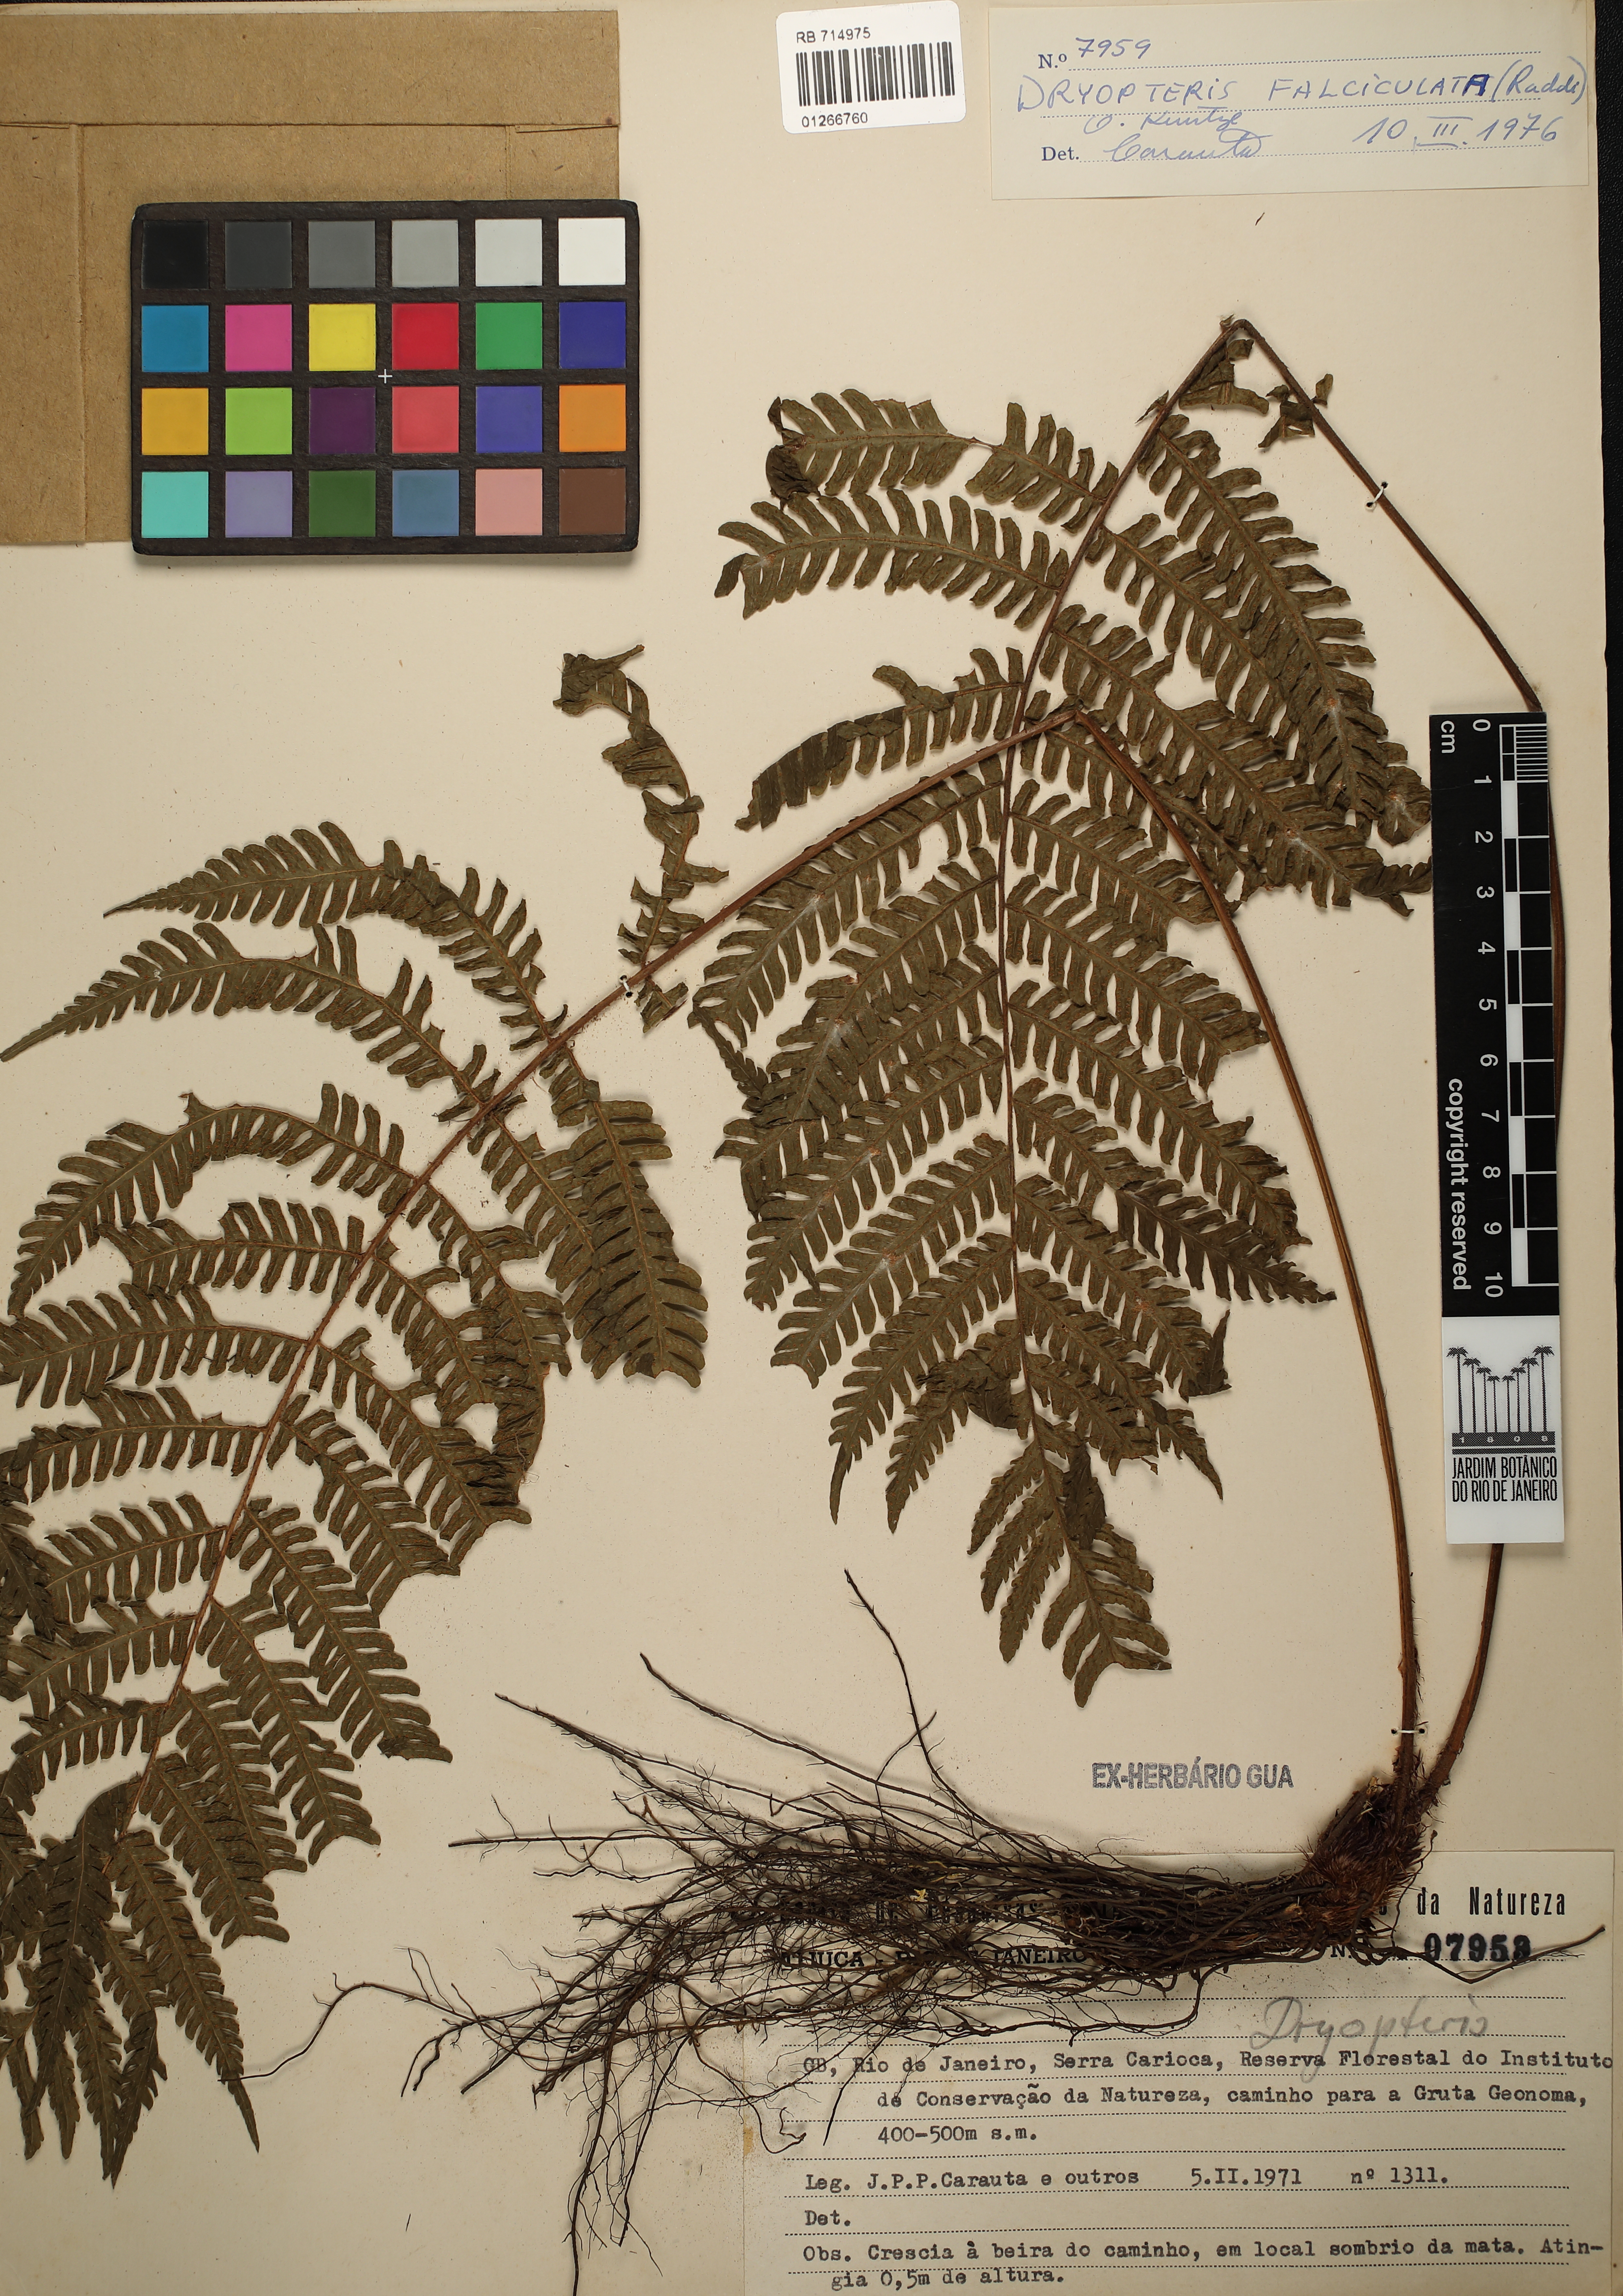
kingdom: Plantae
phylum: Tracheophyta
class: Polypodiopsida
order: Polypodiales
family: Dryopteridaceae
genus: Dryopteris
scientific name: Dryopteris
